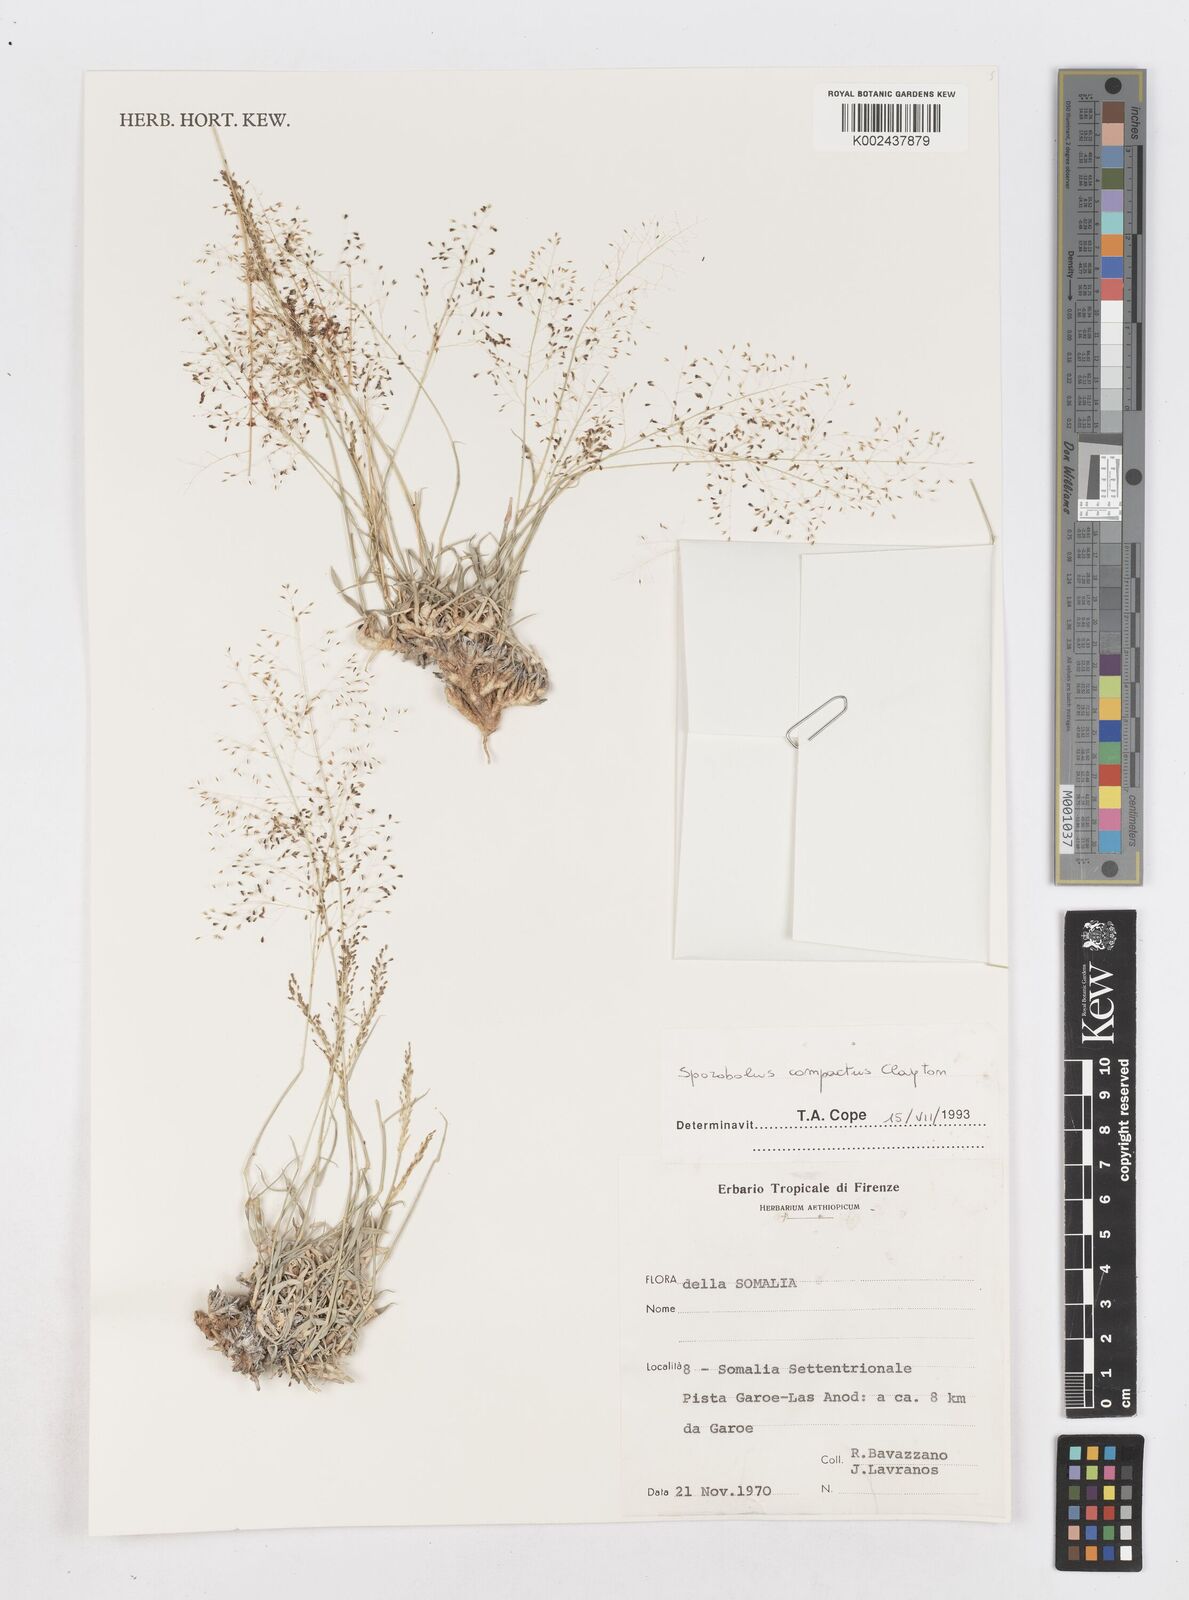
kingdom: Plantae
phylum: Tracheophyta
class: Liliopsida
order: Poales
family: Poaceae
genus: Sporobolus
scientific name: Sporobolus compactus
